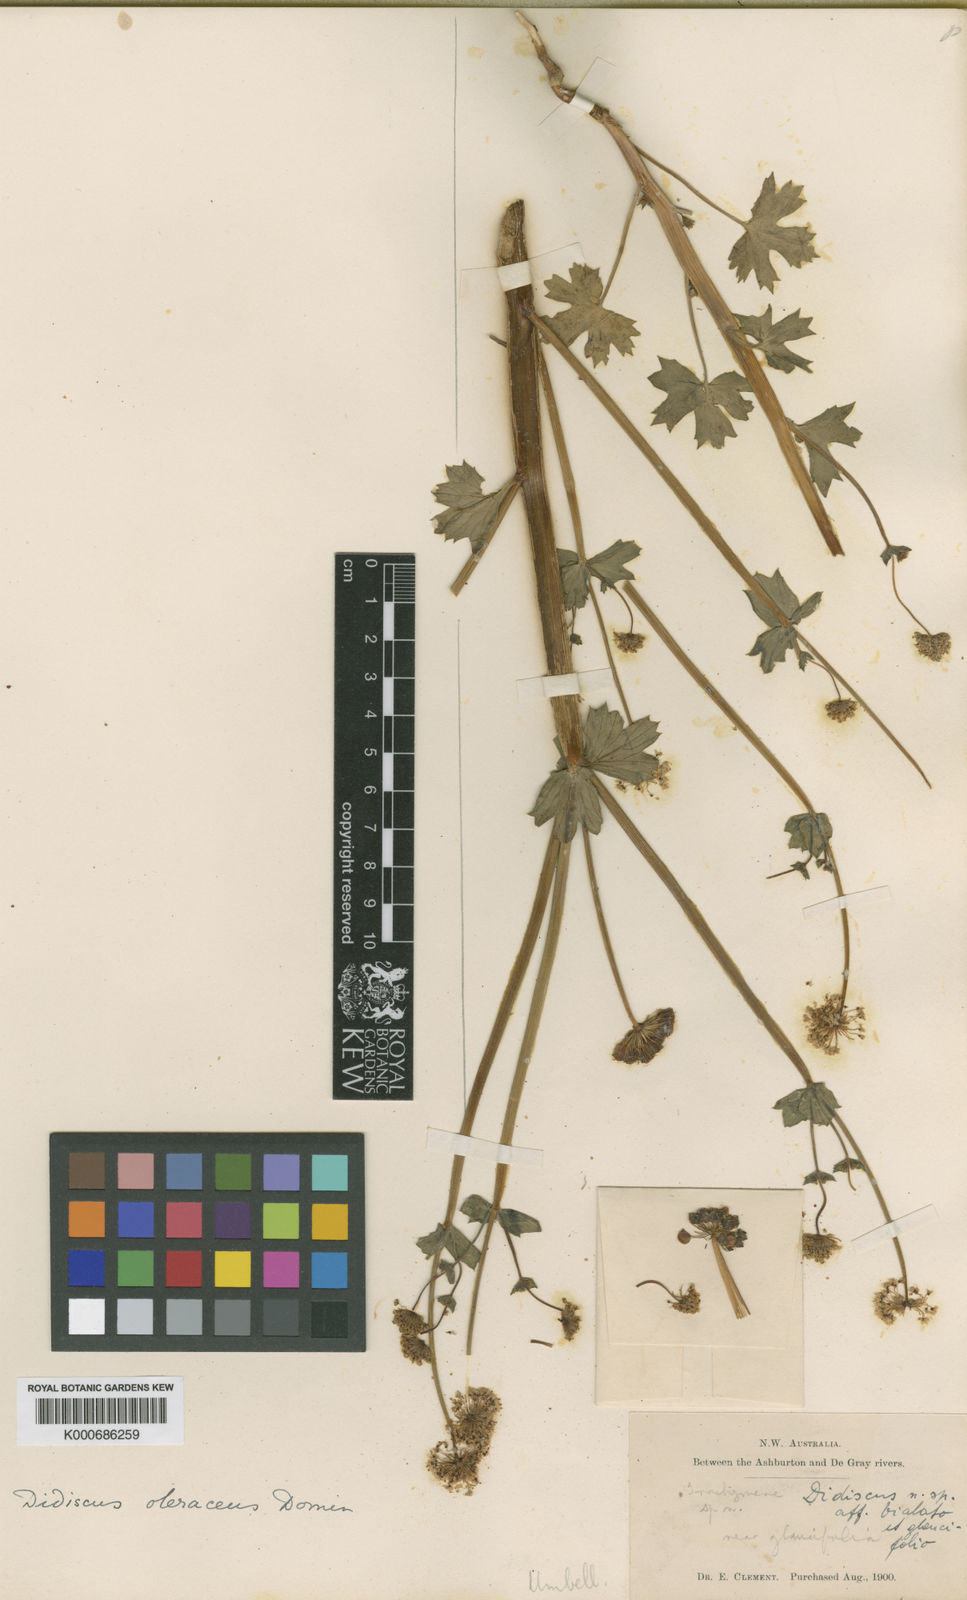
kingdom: Plantae
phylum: Tracheophyta
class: Magnoliopsida
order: Apiales
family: Araliaceae
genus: Trachymene
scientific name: Trachymene oleracea
